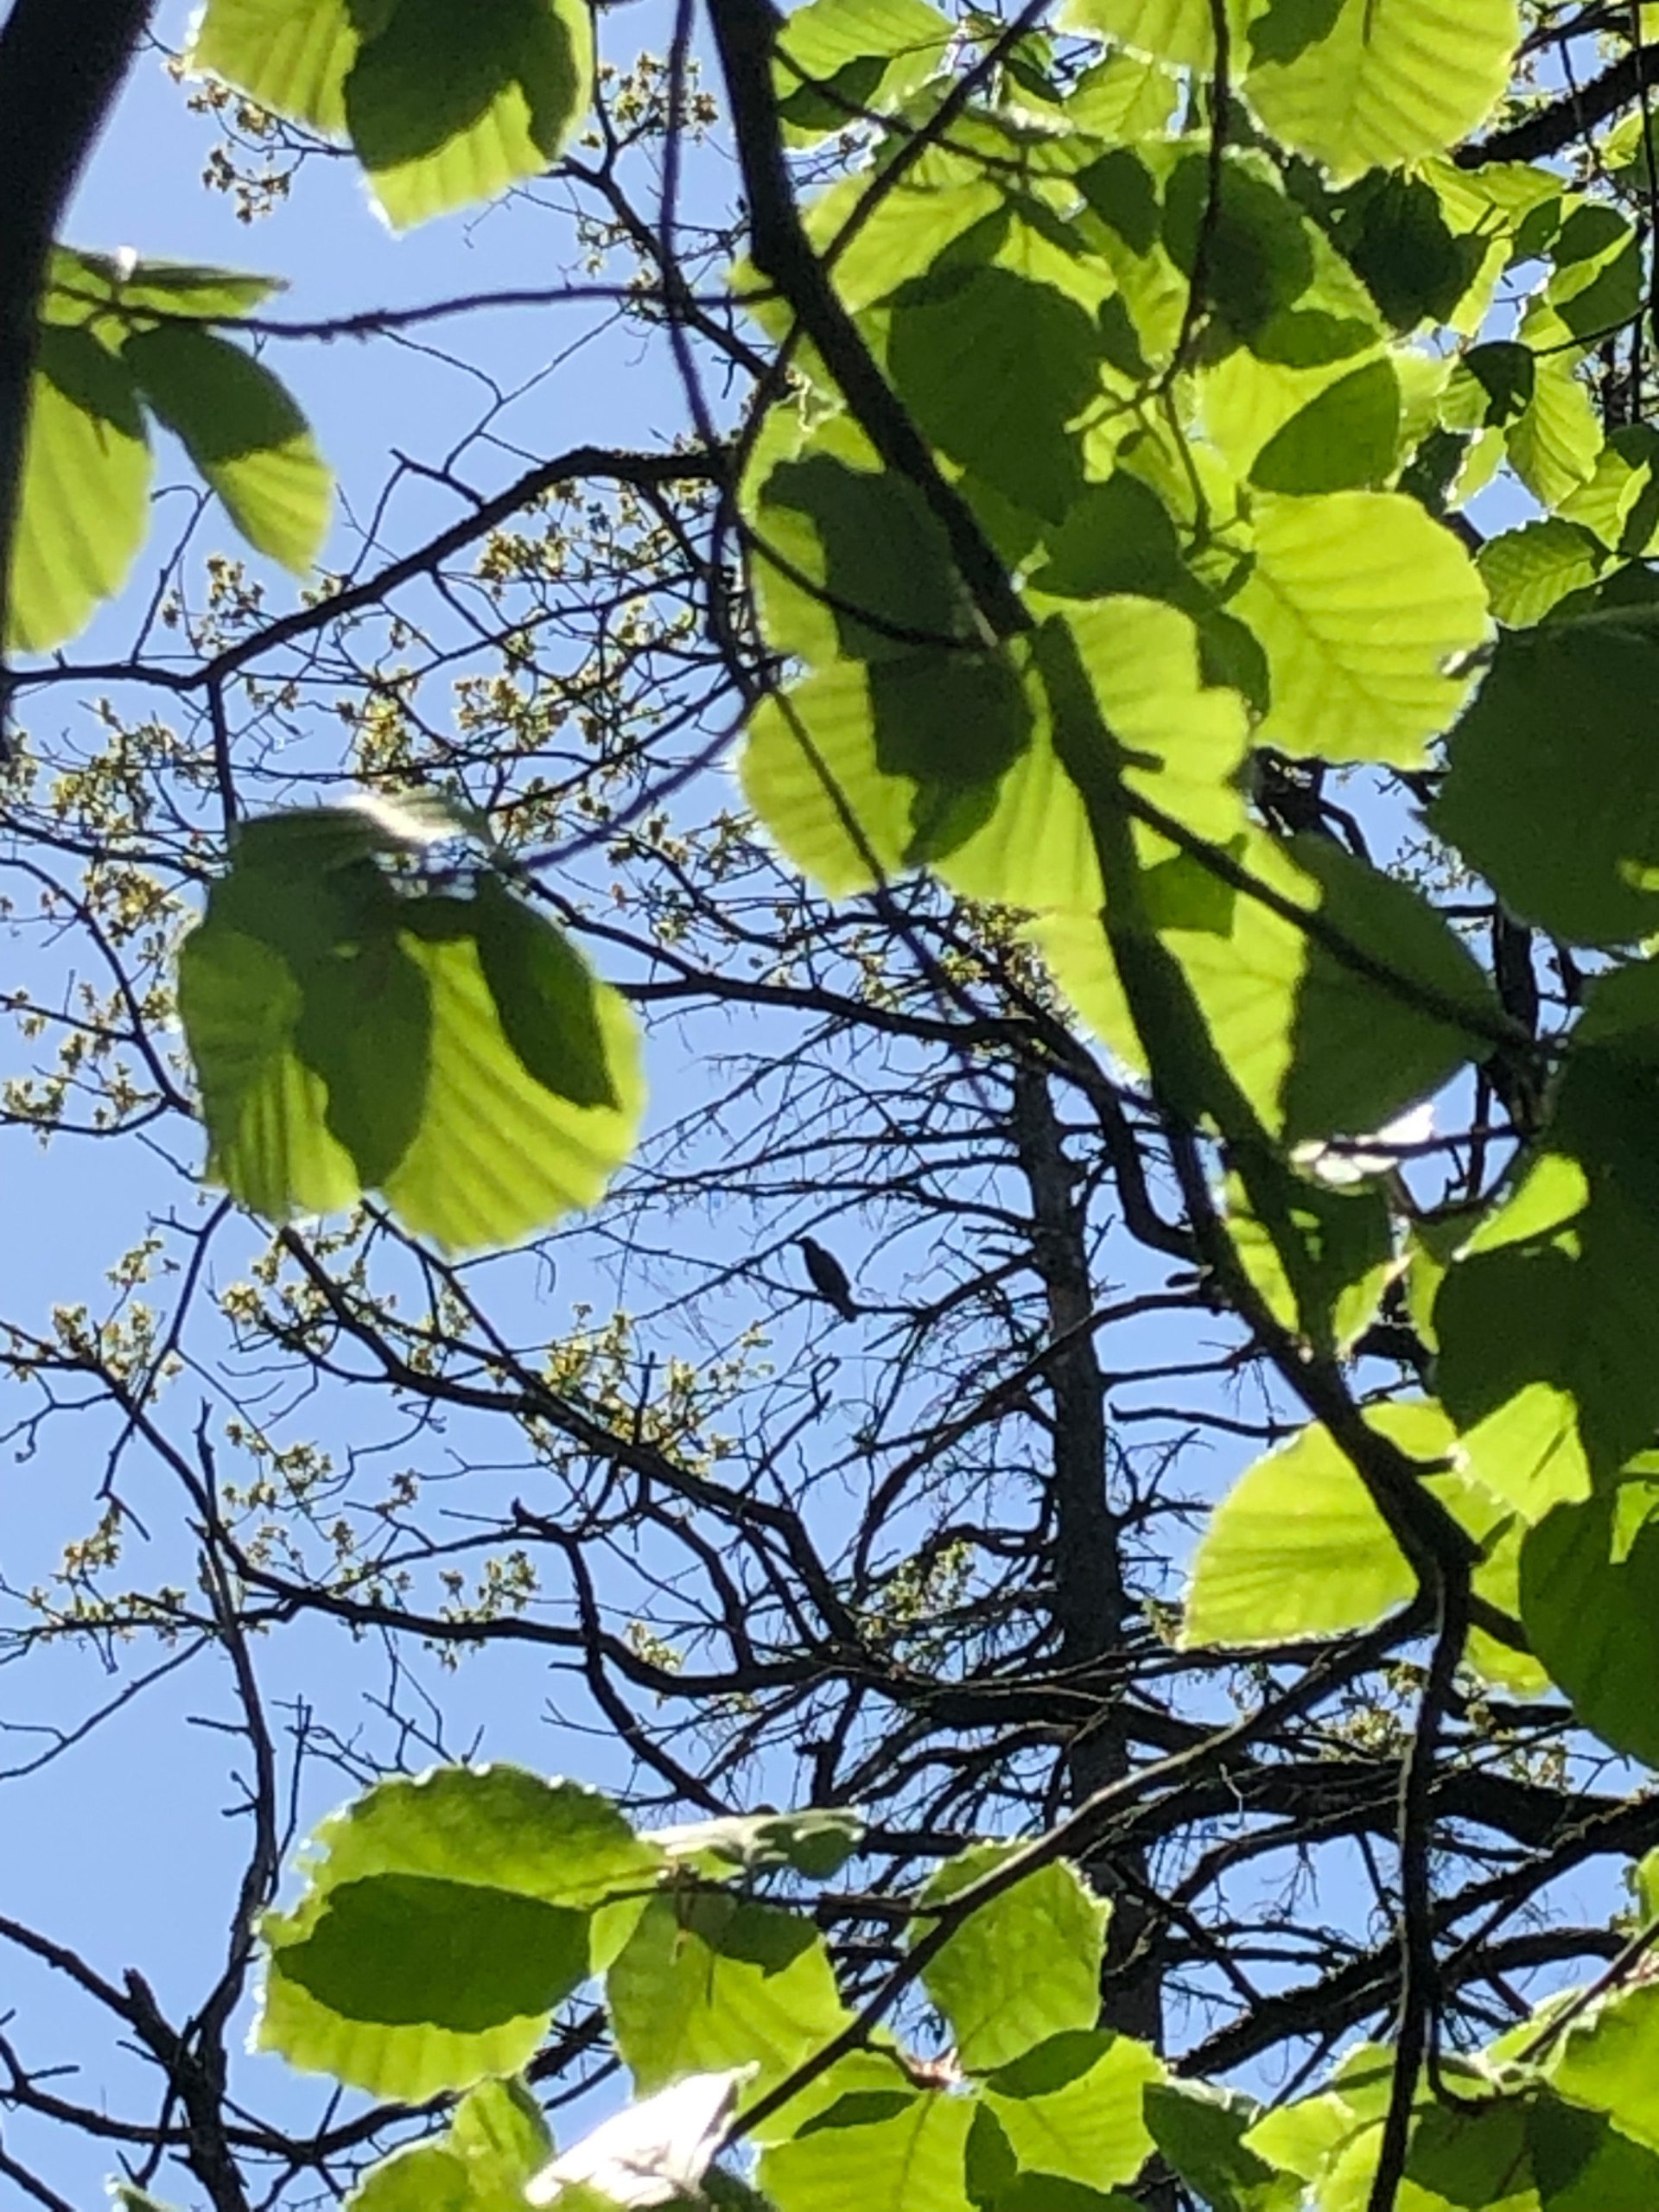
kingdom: Animalia
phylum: Chordata
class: Aves
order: Passeriformes
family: Corvidae
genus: Corvus
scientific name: Corvus corax
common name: Ravn
